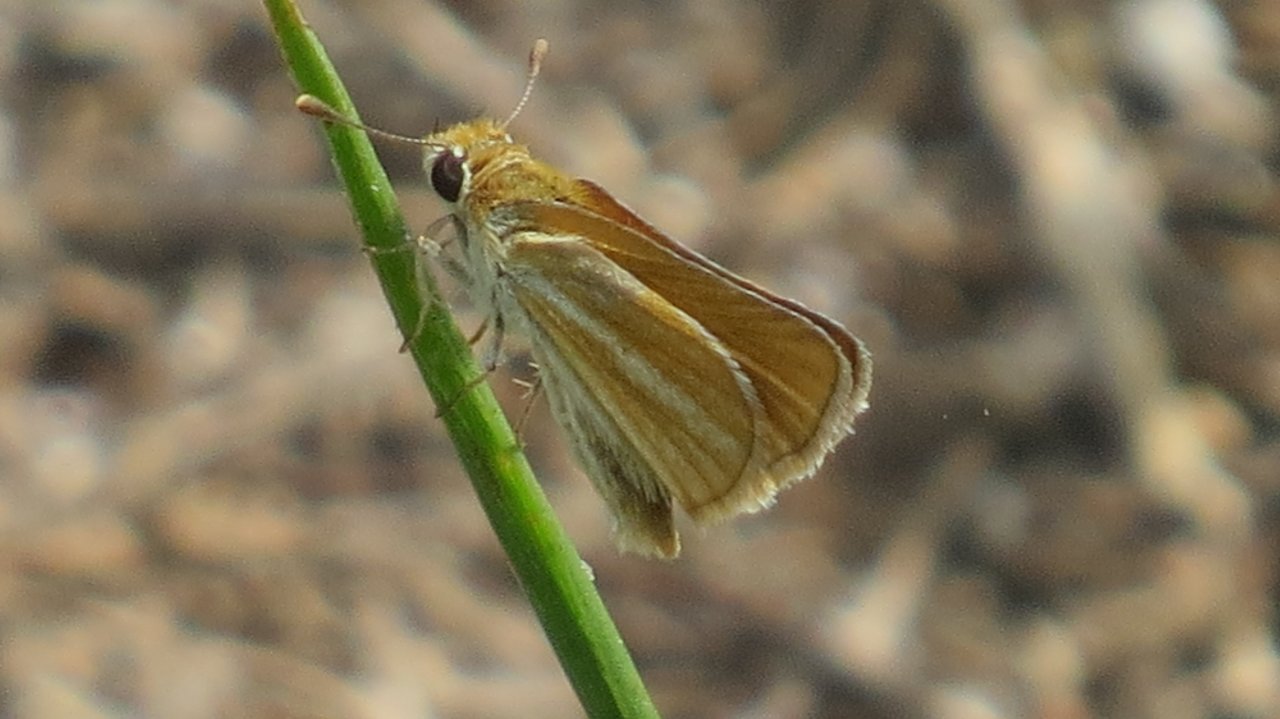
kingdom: Animalia
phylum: Arthropoda
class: Insecta
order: Lepidoptera
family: Hesperiidae
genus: Copaeodes
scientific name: Copaeodes minima
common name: Southern Skipperling
